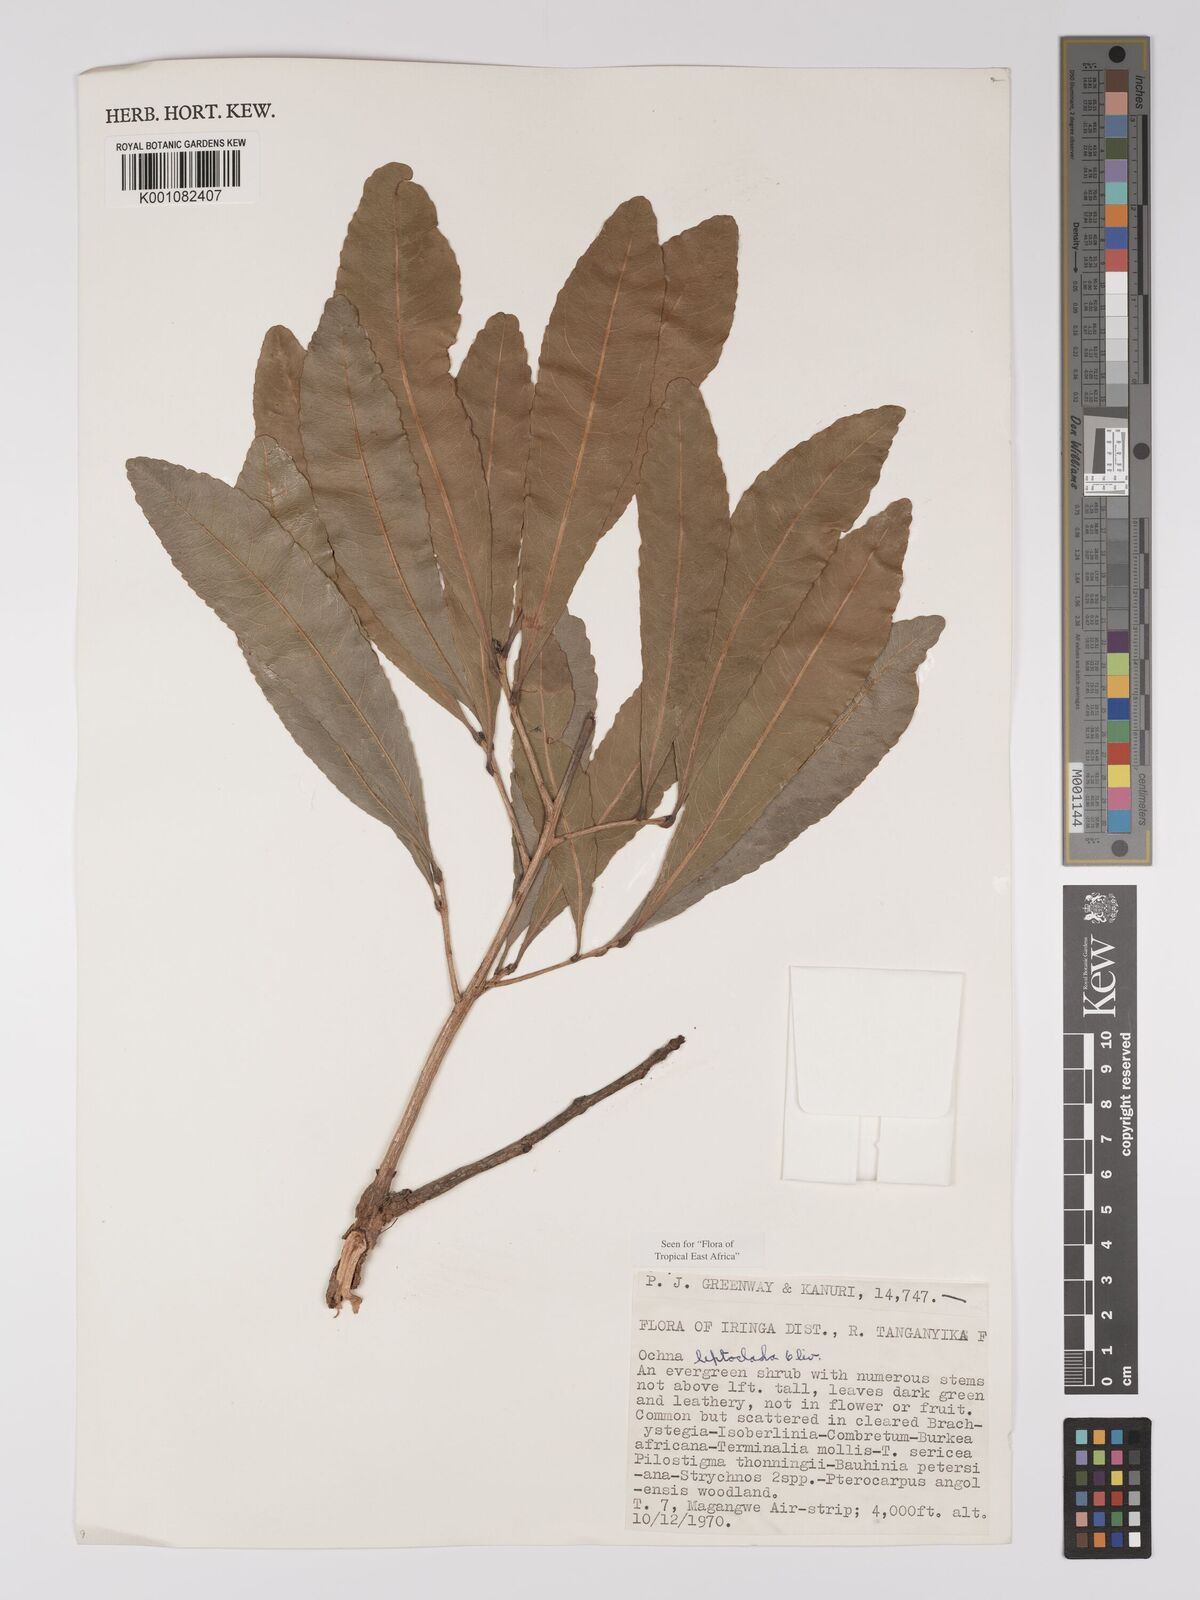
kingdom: Plantae
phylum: Tracheophyta
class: Magnoliopsida
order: Malpighiales
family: Ochnaceae
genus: Ochna
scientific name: Ochna leptoclada
